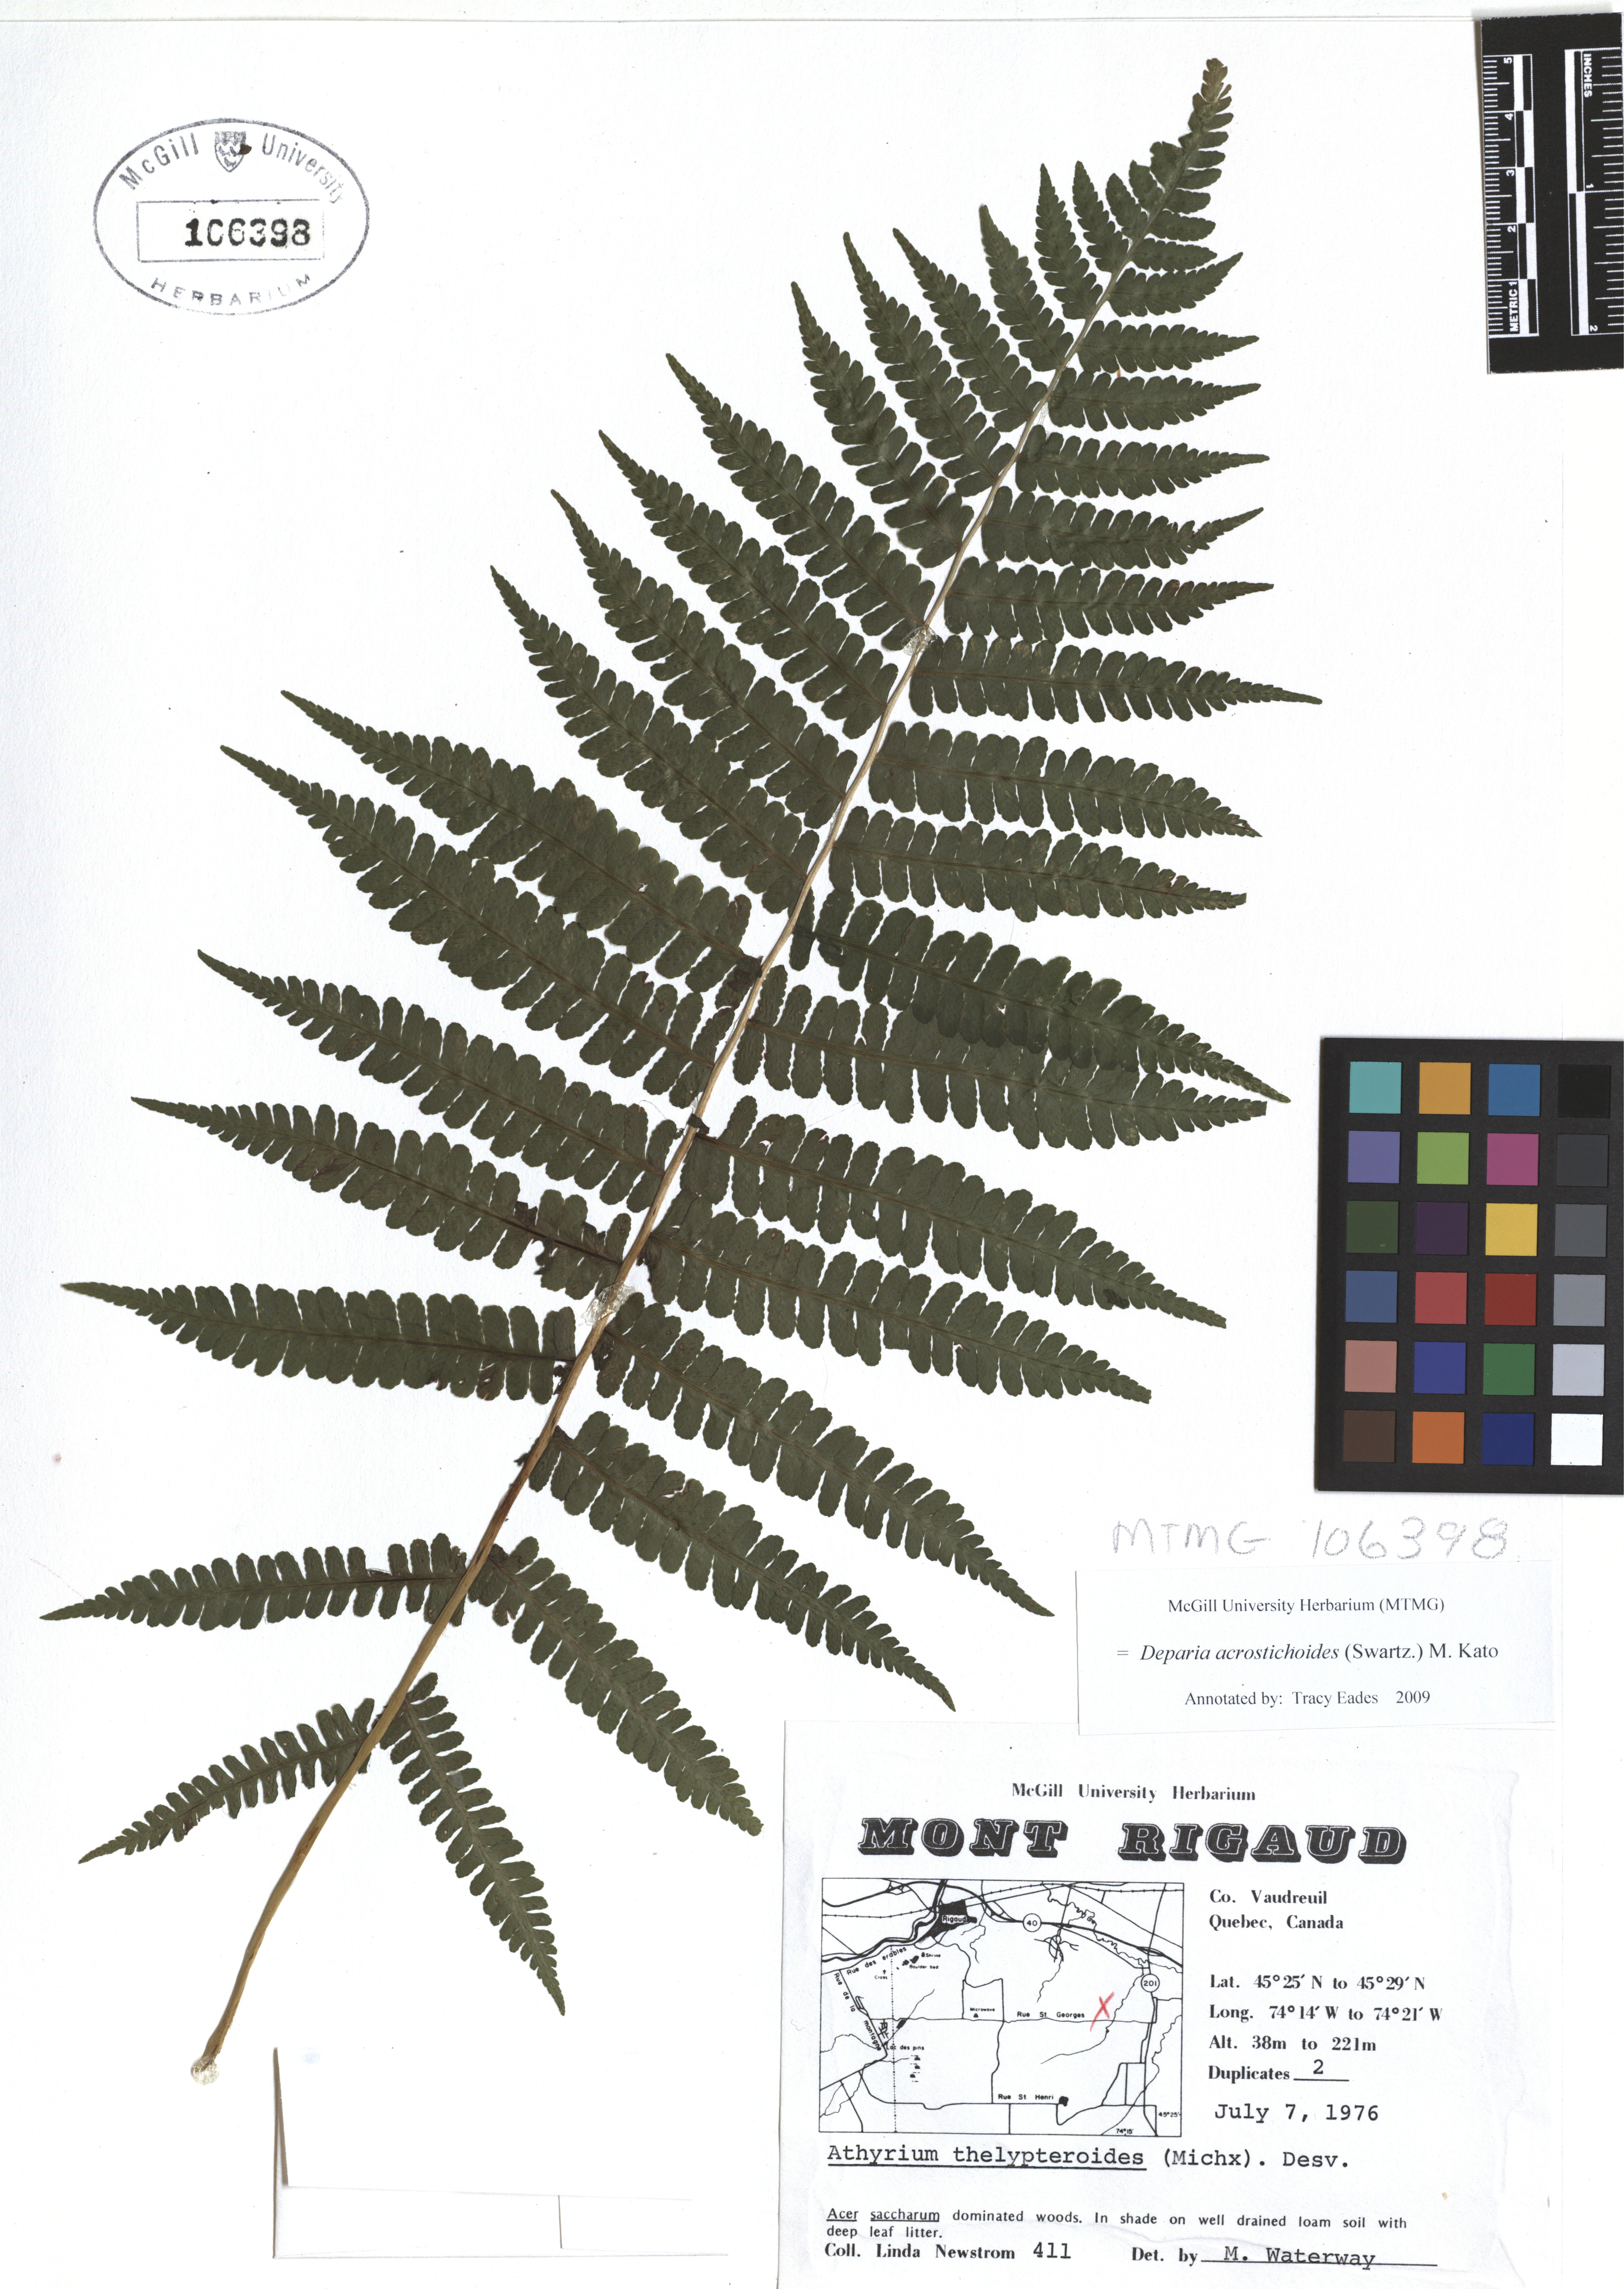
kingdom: Plantae
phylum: Tracheophyta
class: Polypodiopsida
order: Polypodiales
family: Athyriaceae
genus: Deparia
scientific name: Deparia acrostichoides
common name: Silver false spleenwort
